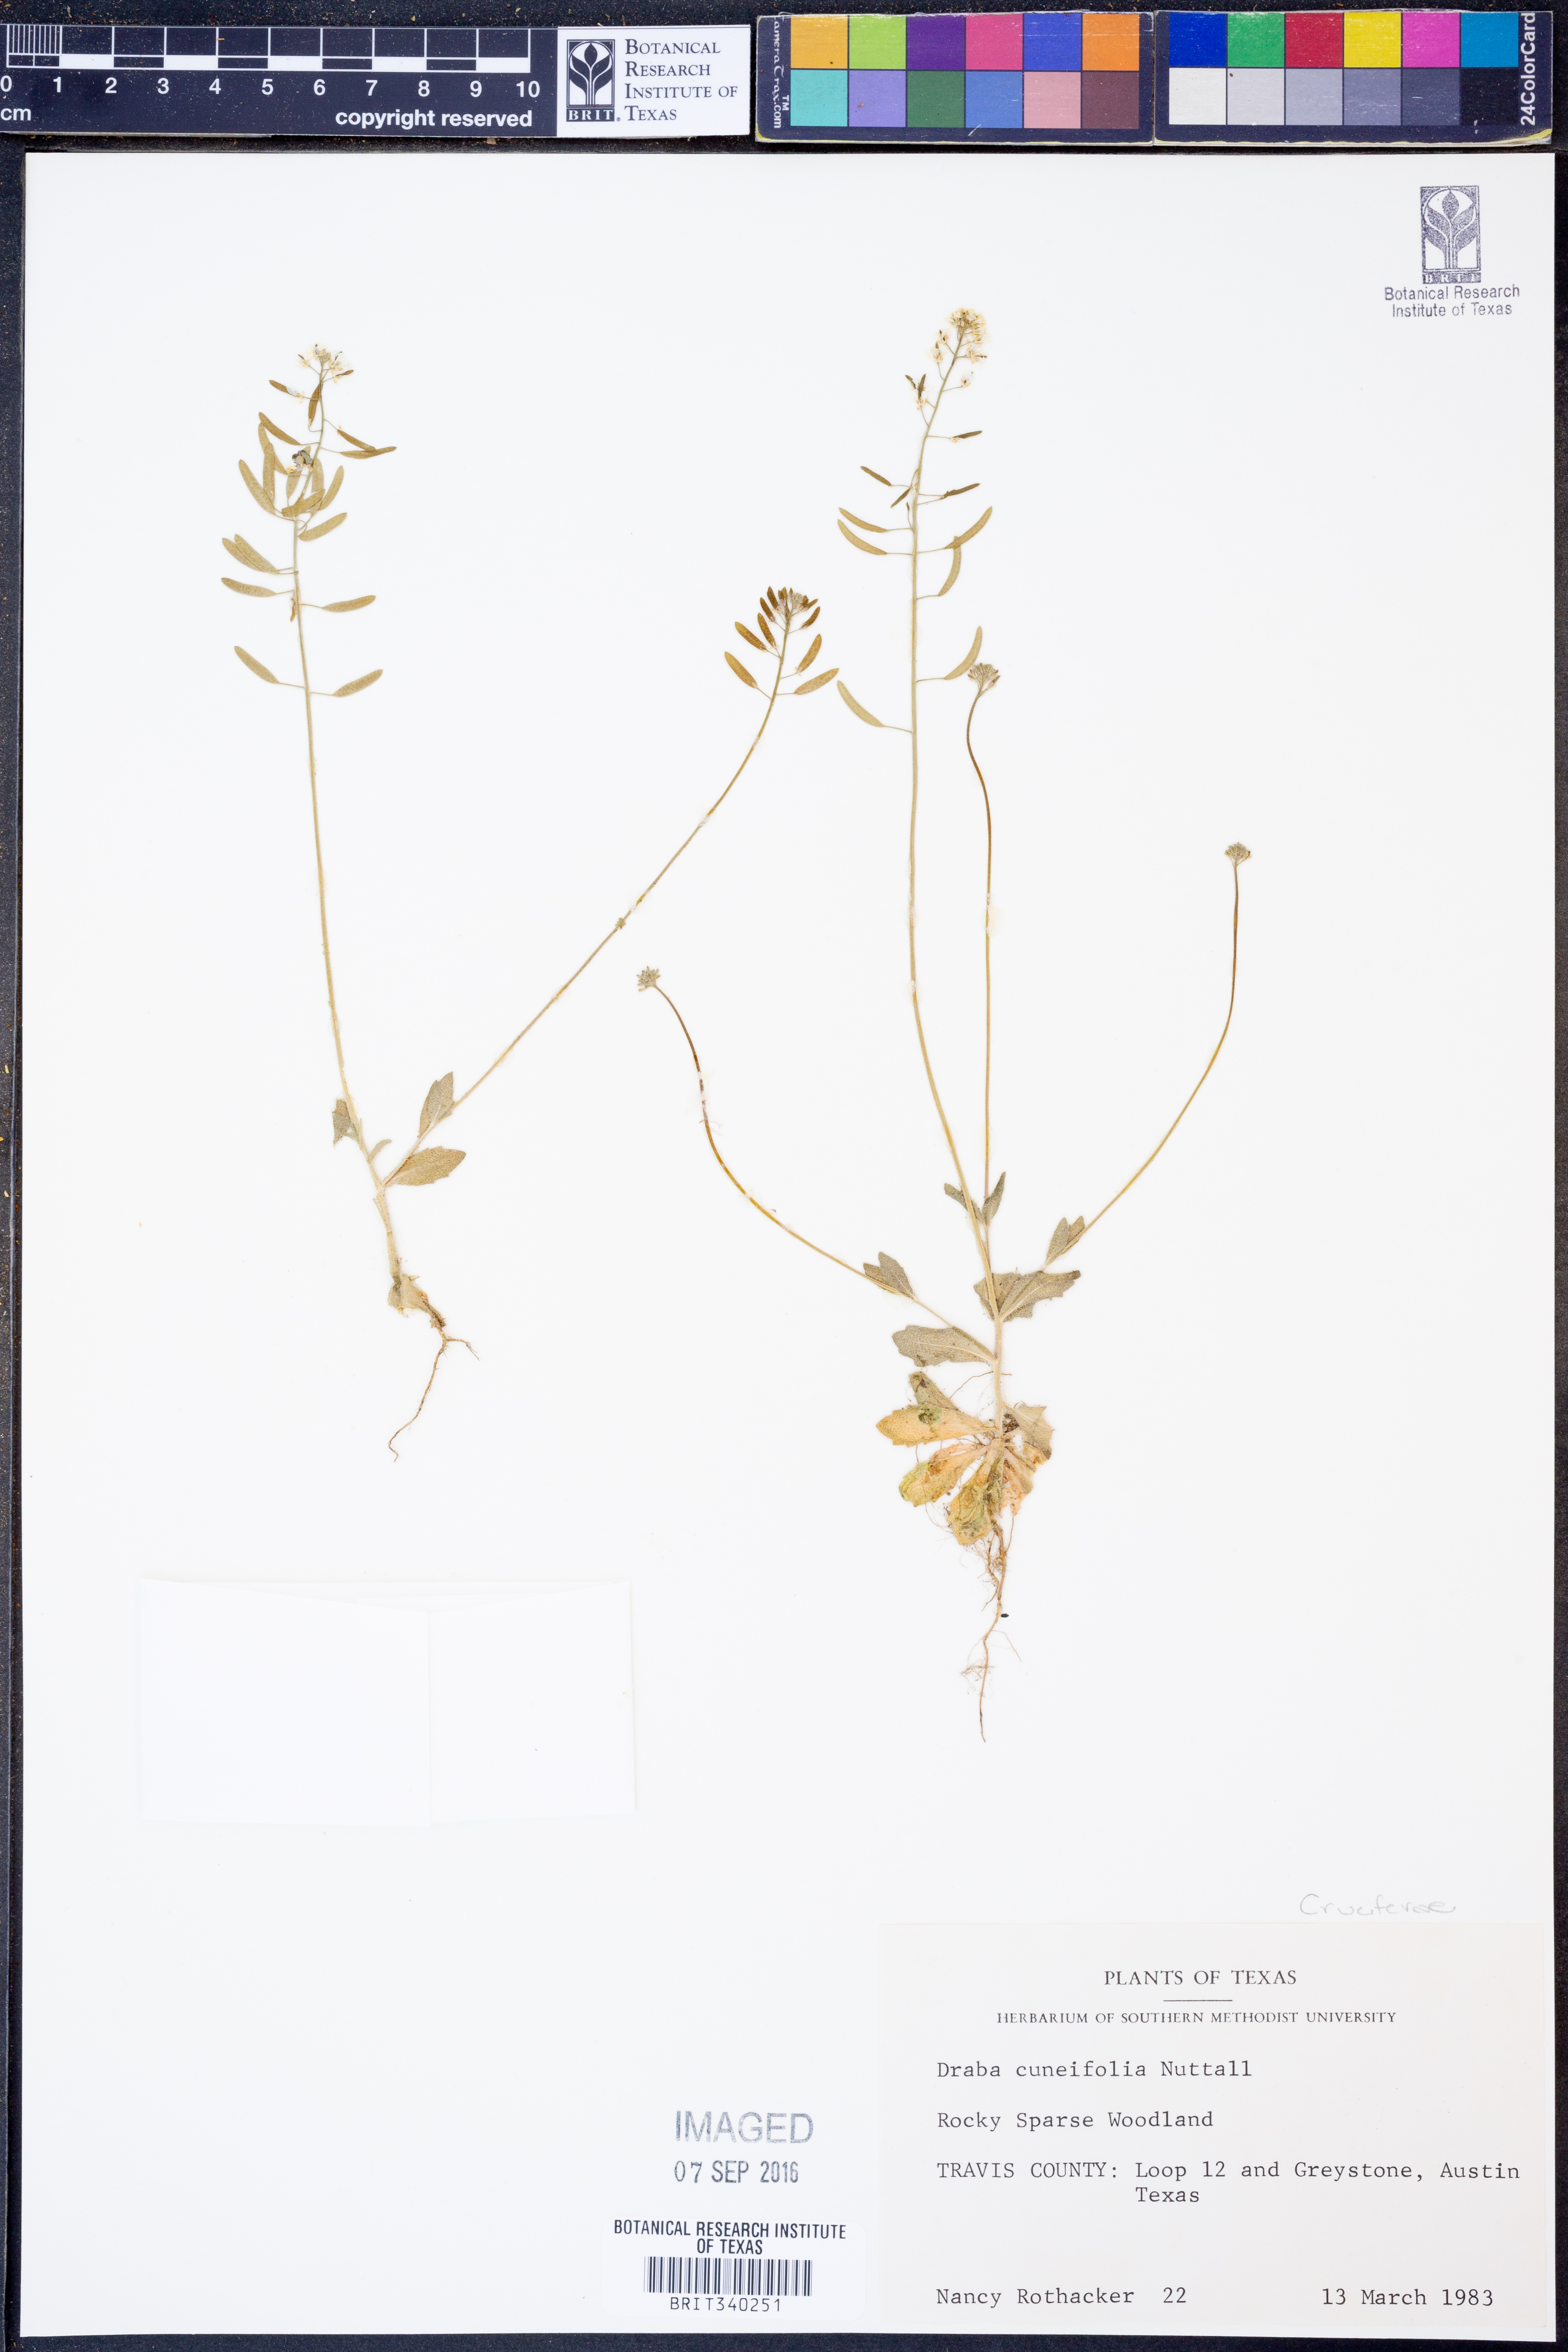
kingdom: Plantae
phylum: Tracheophyta
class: Magnoliopsida
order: Brassicales
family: Brassicaceae
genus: Tomostima
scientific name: Tomostima cuneifolia
